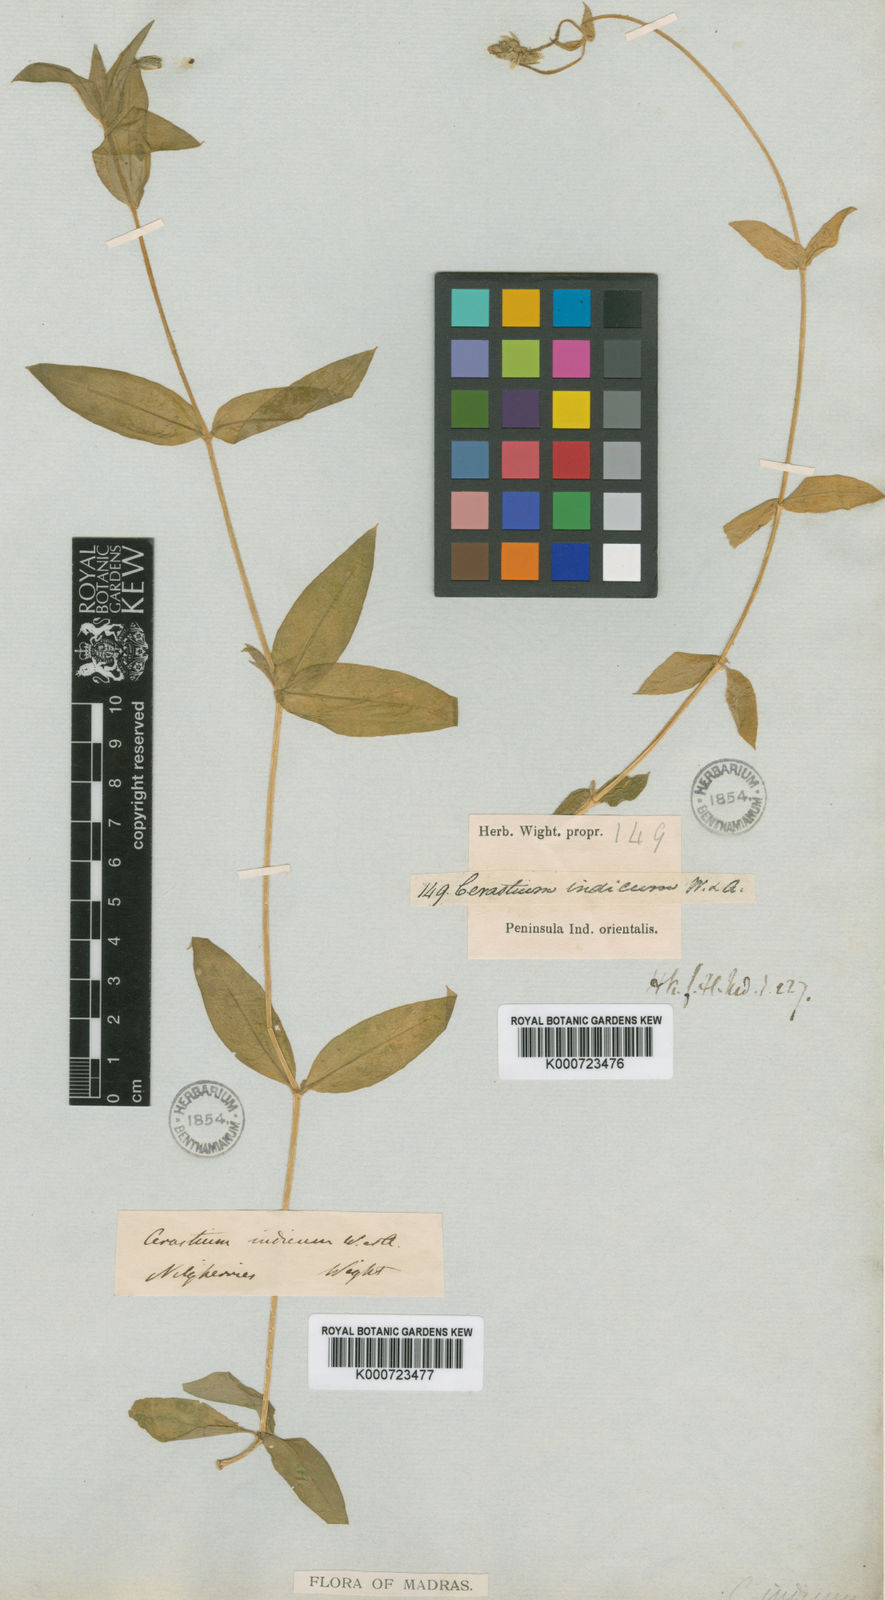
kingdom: Plantae
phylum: Tracheophyta
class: Magnoliopsida
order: Caryophyllales
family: Caryophyllaceae
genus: Cerastium
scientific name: Cerastium lanceolatum
